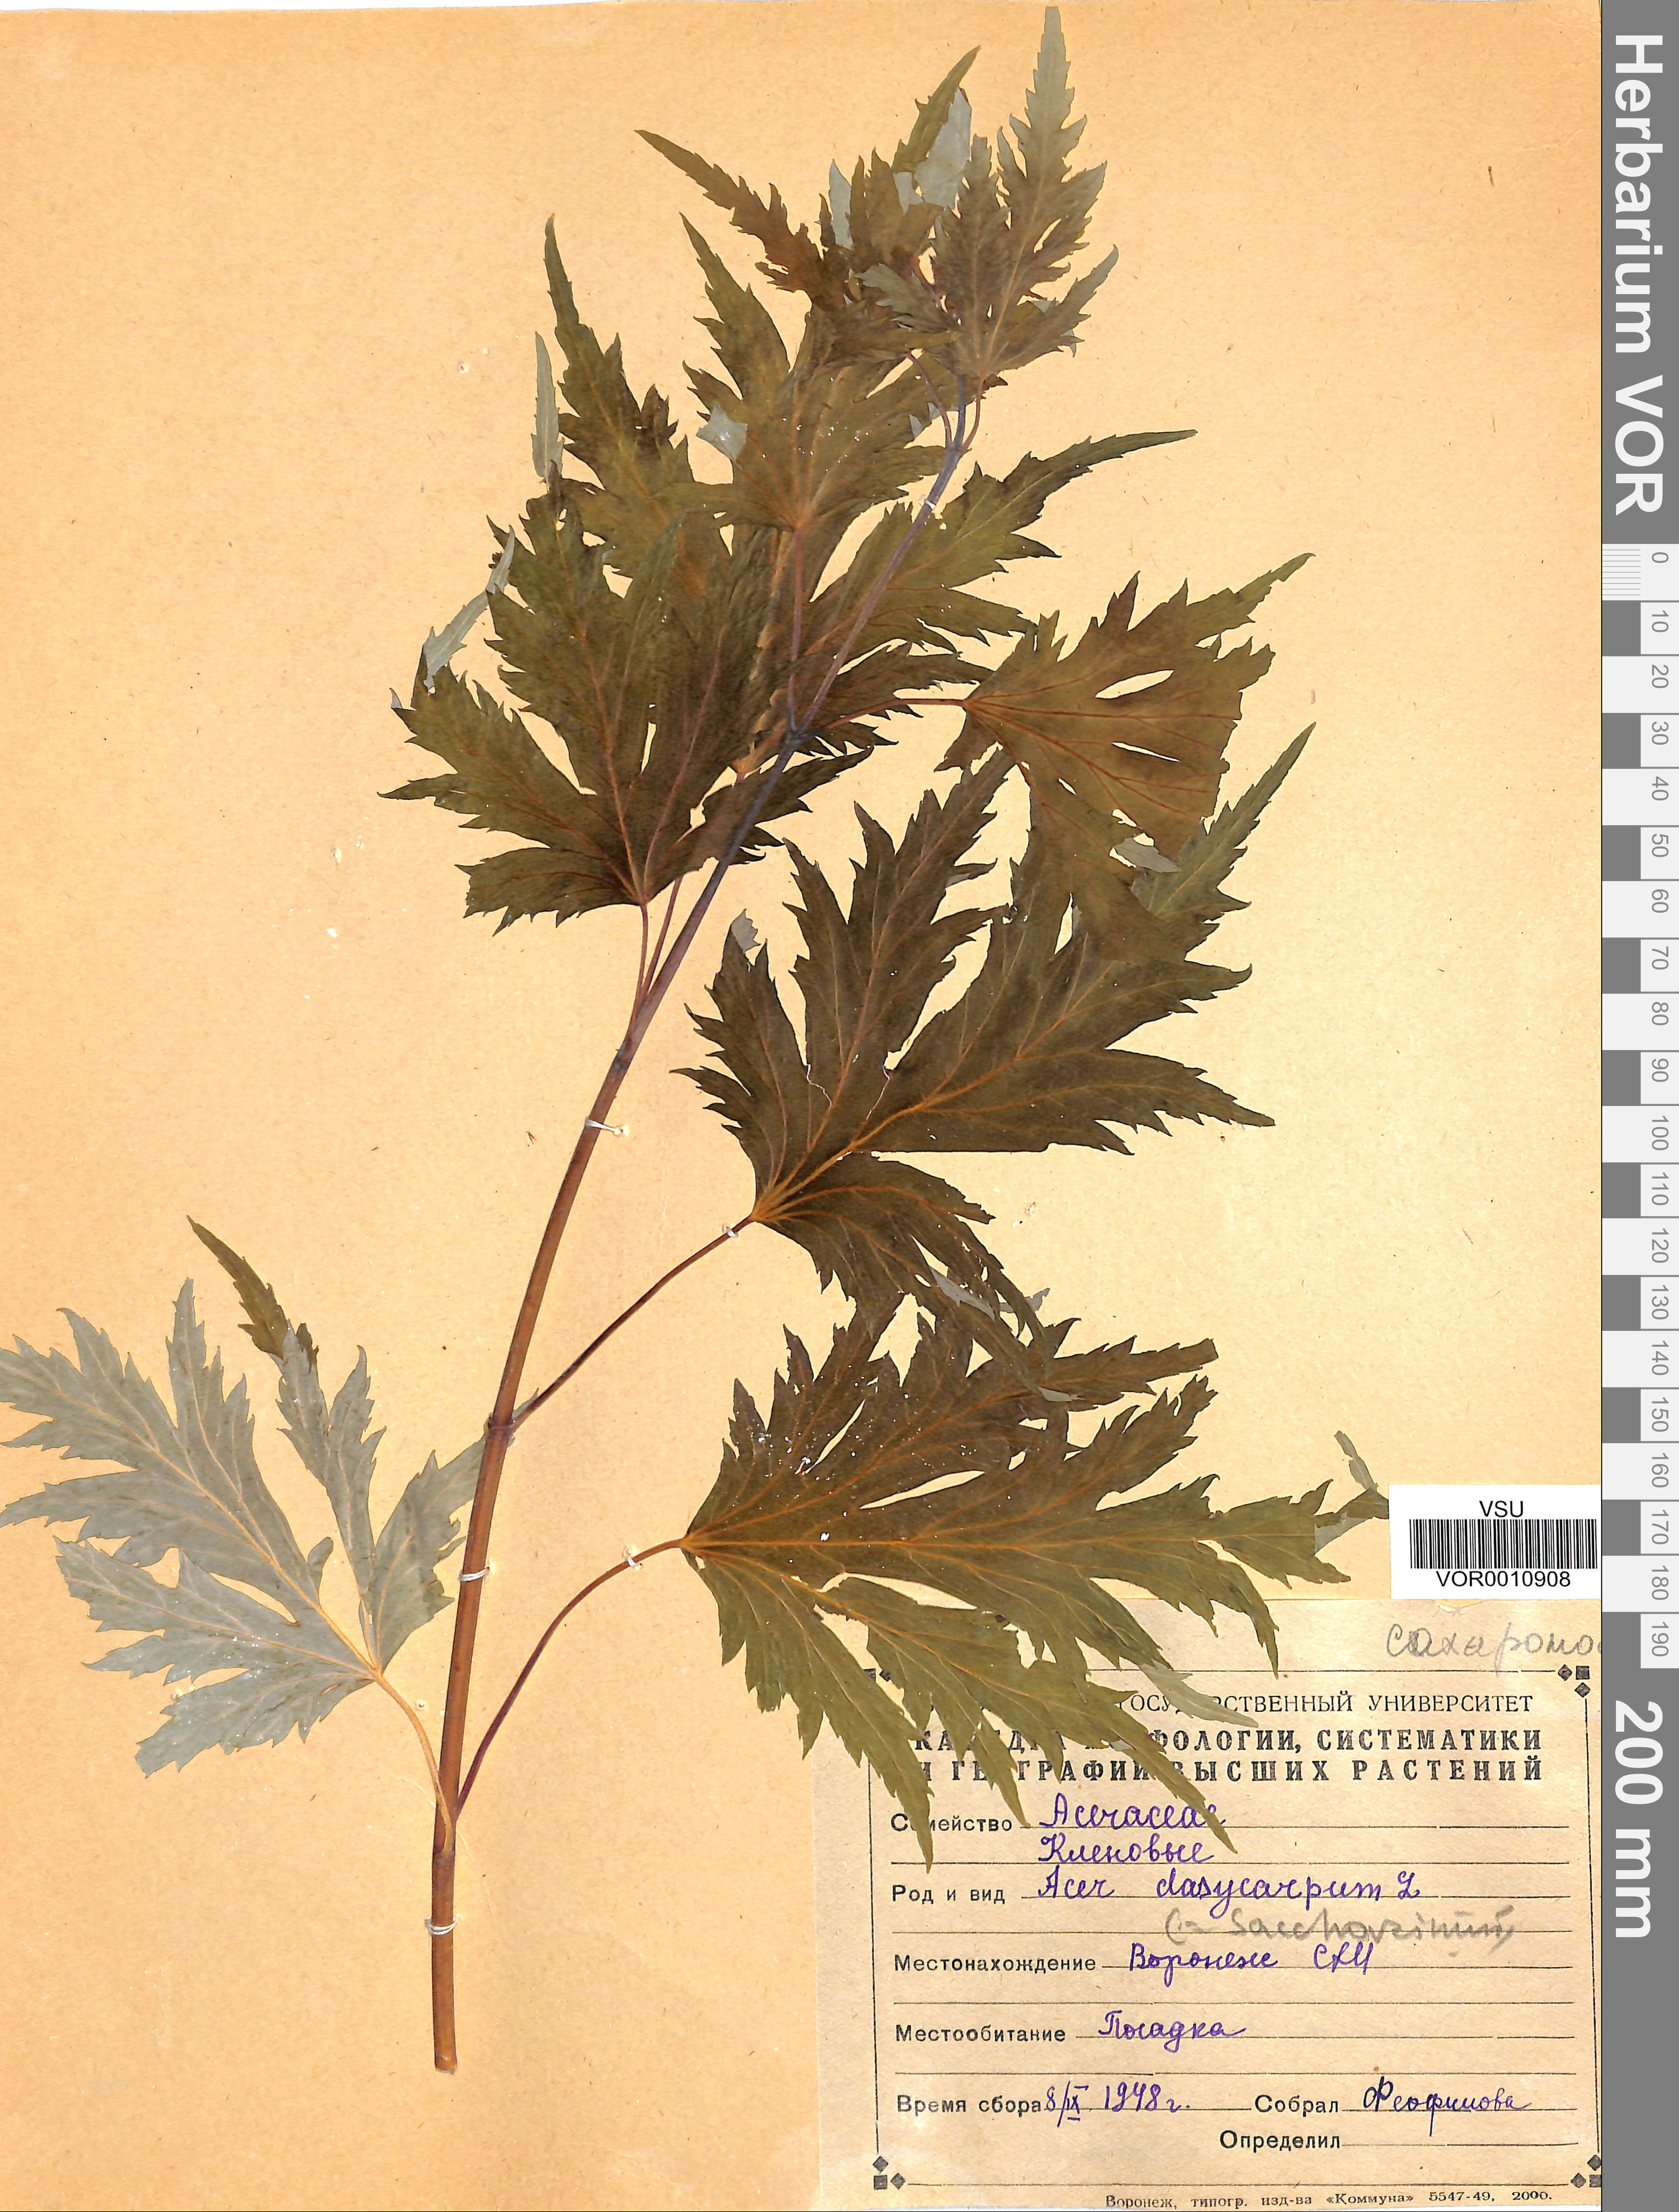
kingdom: Plantae
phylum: Tracheophyta
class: Magnoliopsida
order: Sapindales
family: Sapindaceae
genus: Acer
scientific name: Acer saccharinum
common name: Silver maple
